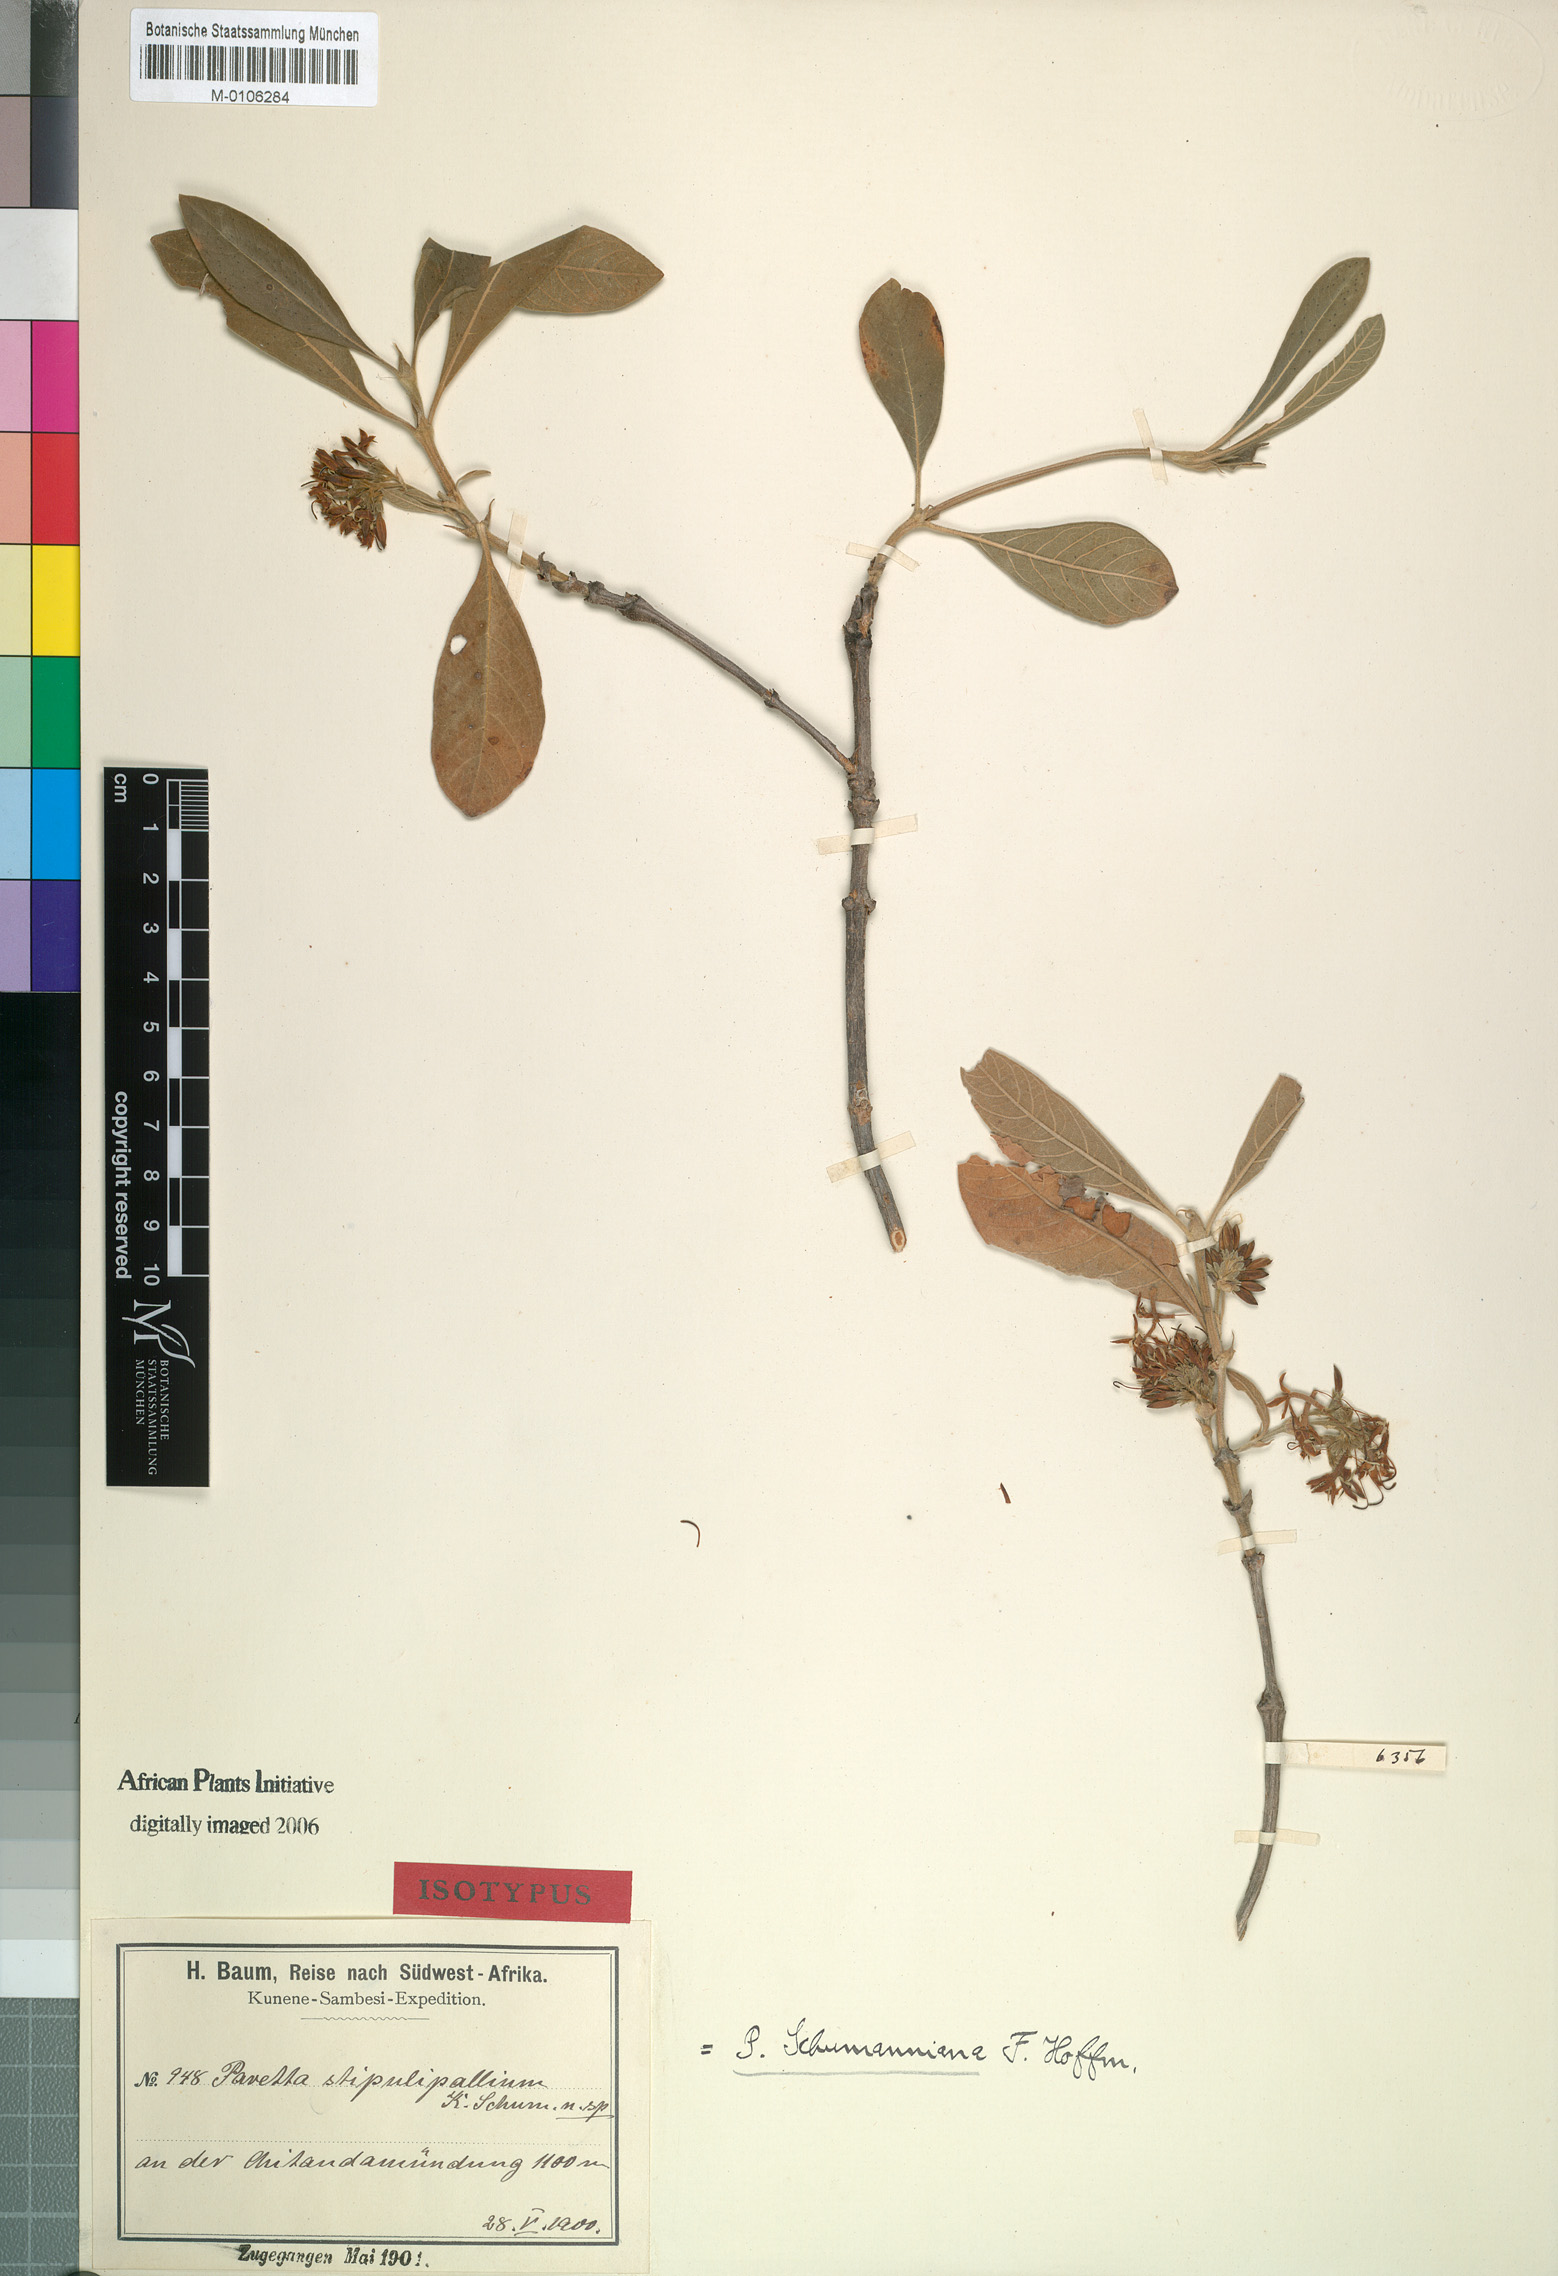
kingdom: Plantae
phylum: Tracheophyta
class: Magnoliopsida
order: Gentianales
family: Rubiaceae
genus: Pavetta
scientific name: Pavetta schumanniana
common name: Poisonous bride's-bush
